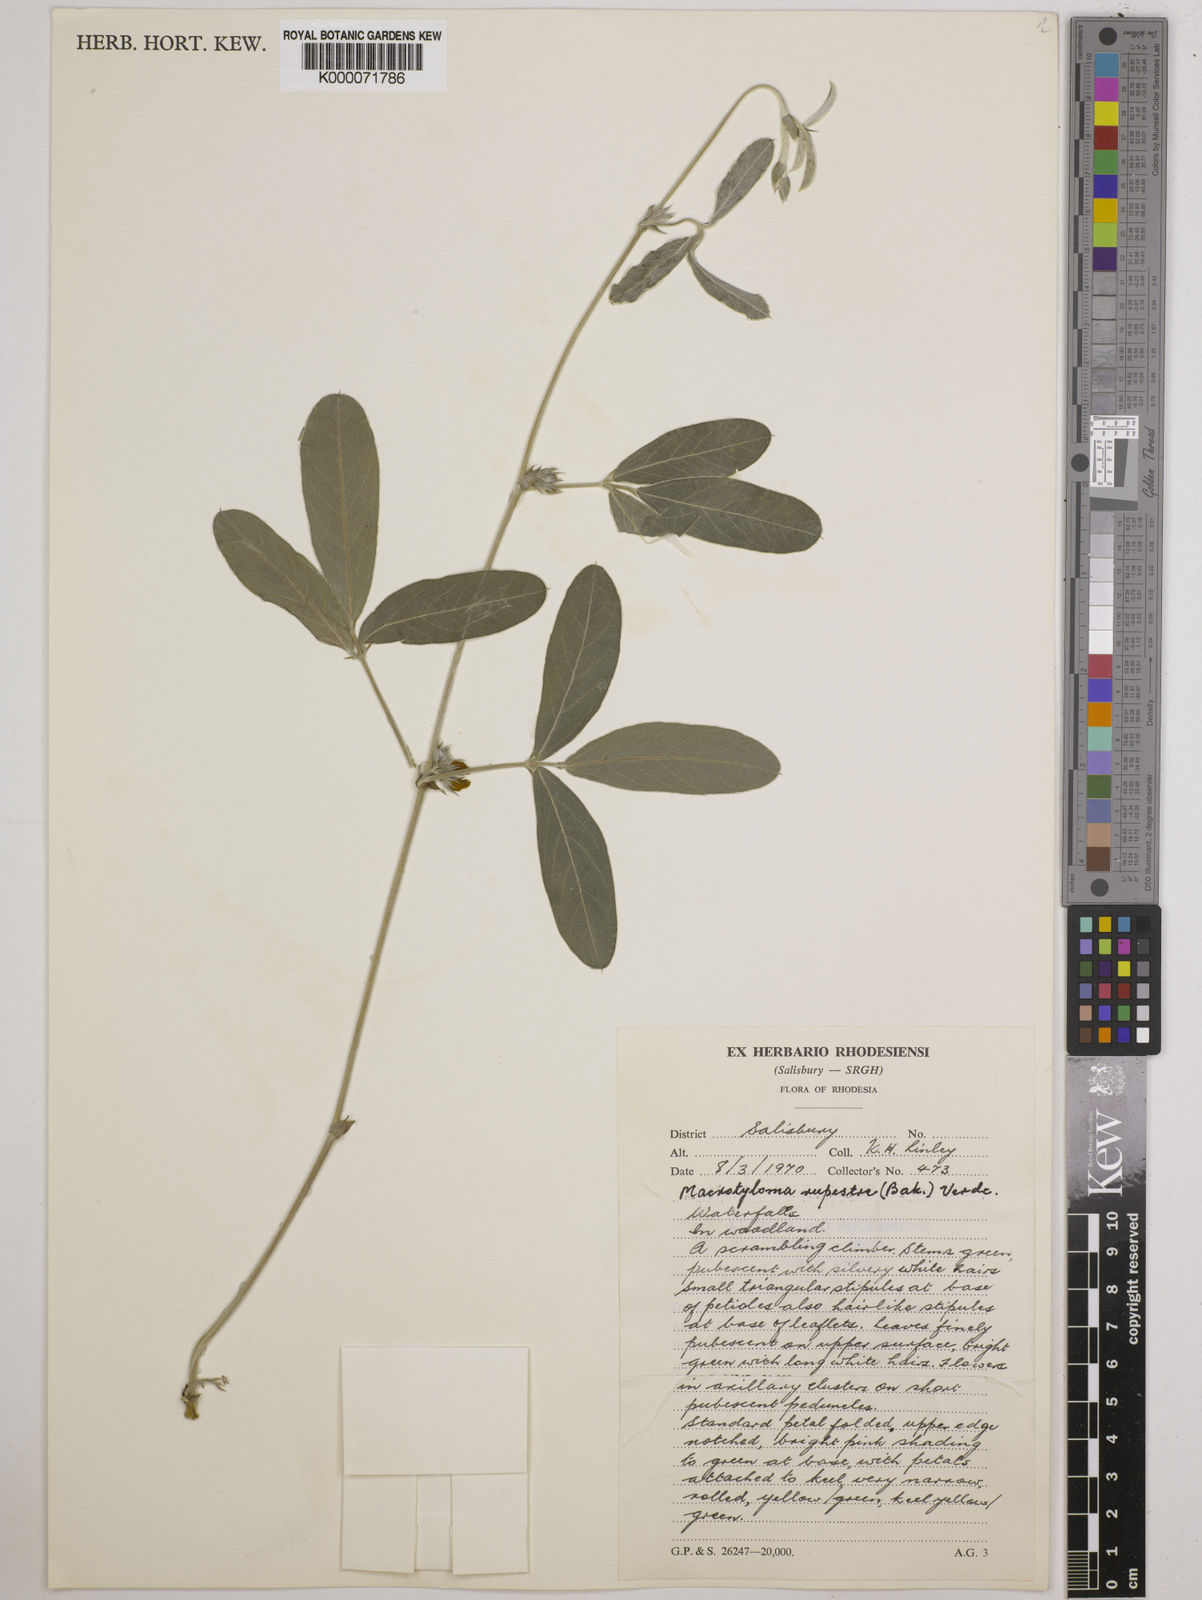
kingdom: Plantae
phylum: Tracheophyta
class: Magnoliopsida
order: Fabales
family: Fabaceae
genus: Macrotyloma
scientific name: Macrotyloma rupestre
